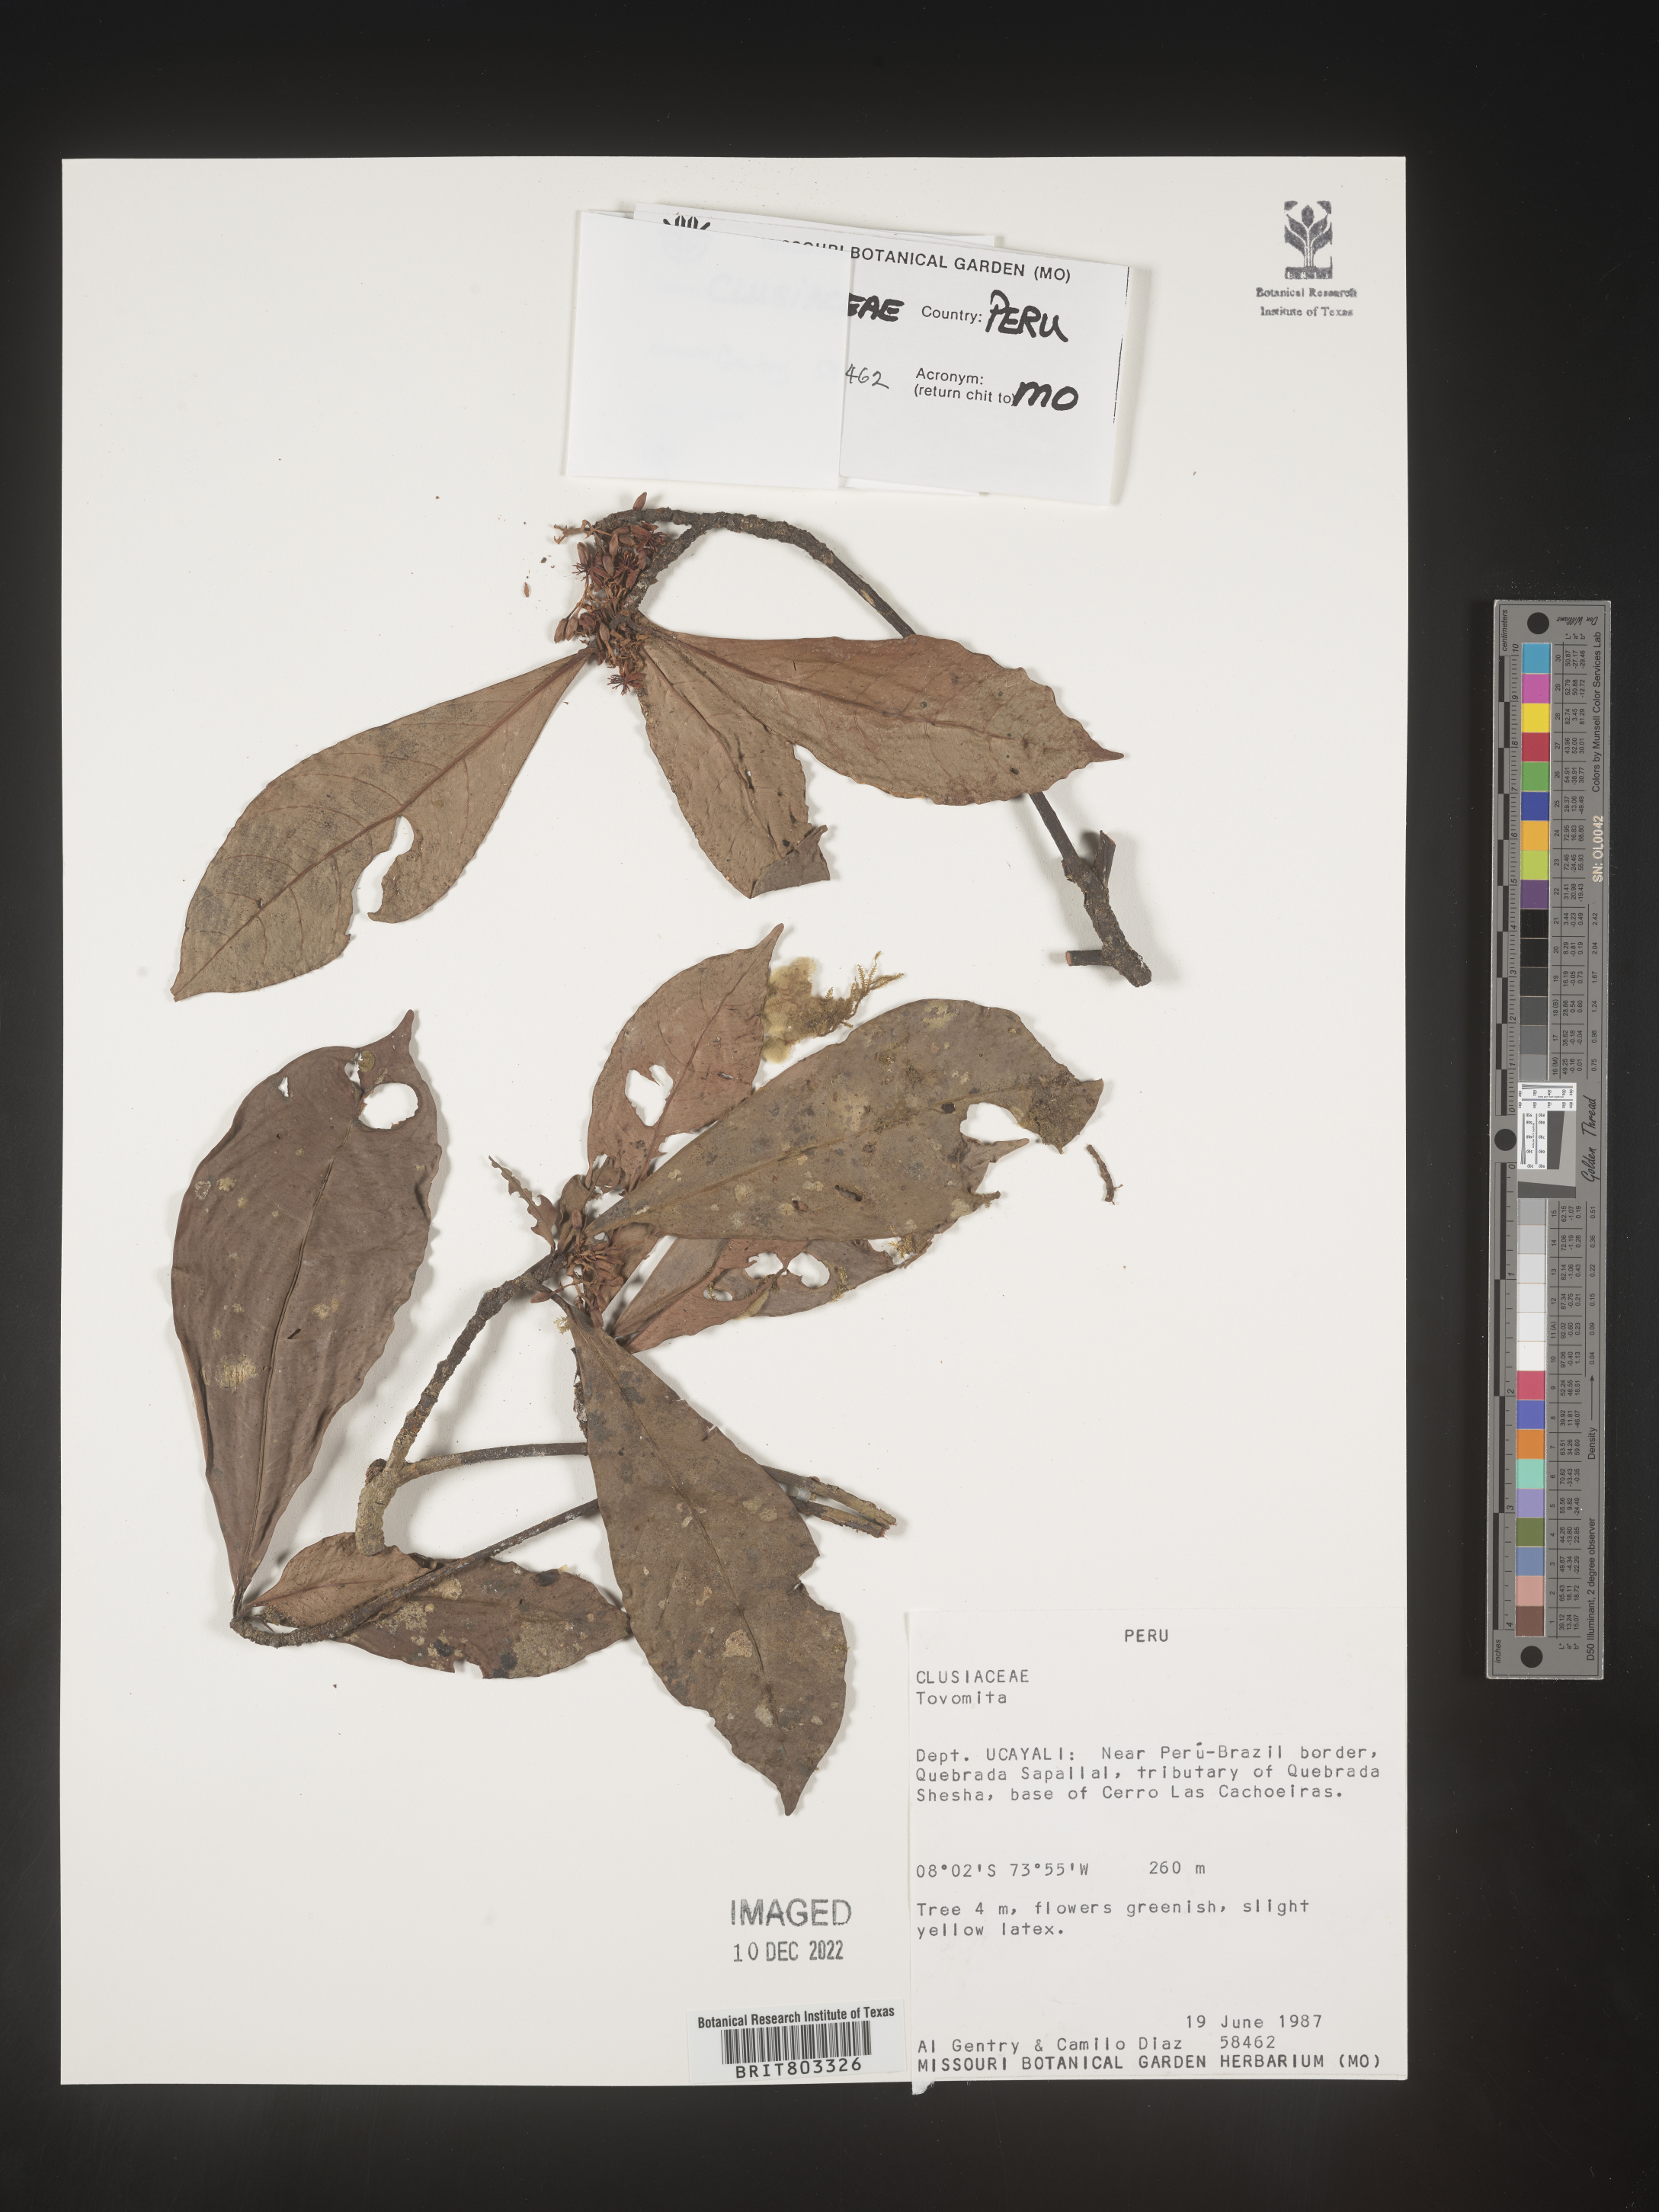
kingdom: Plantae
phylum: Tracheophyta
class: Magnoliopsida
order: Malpighiales
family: Clusiaceae
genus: Tovomita
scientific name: Tovomita
